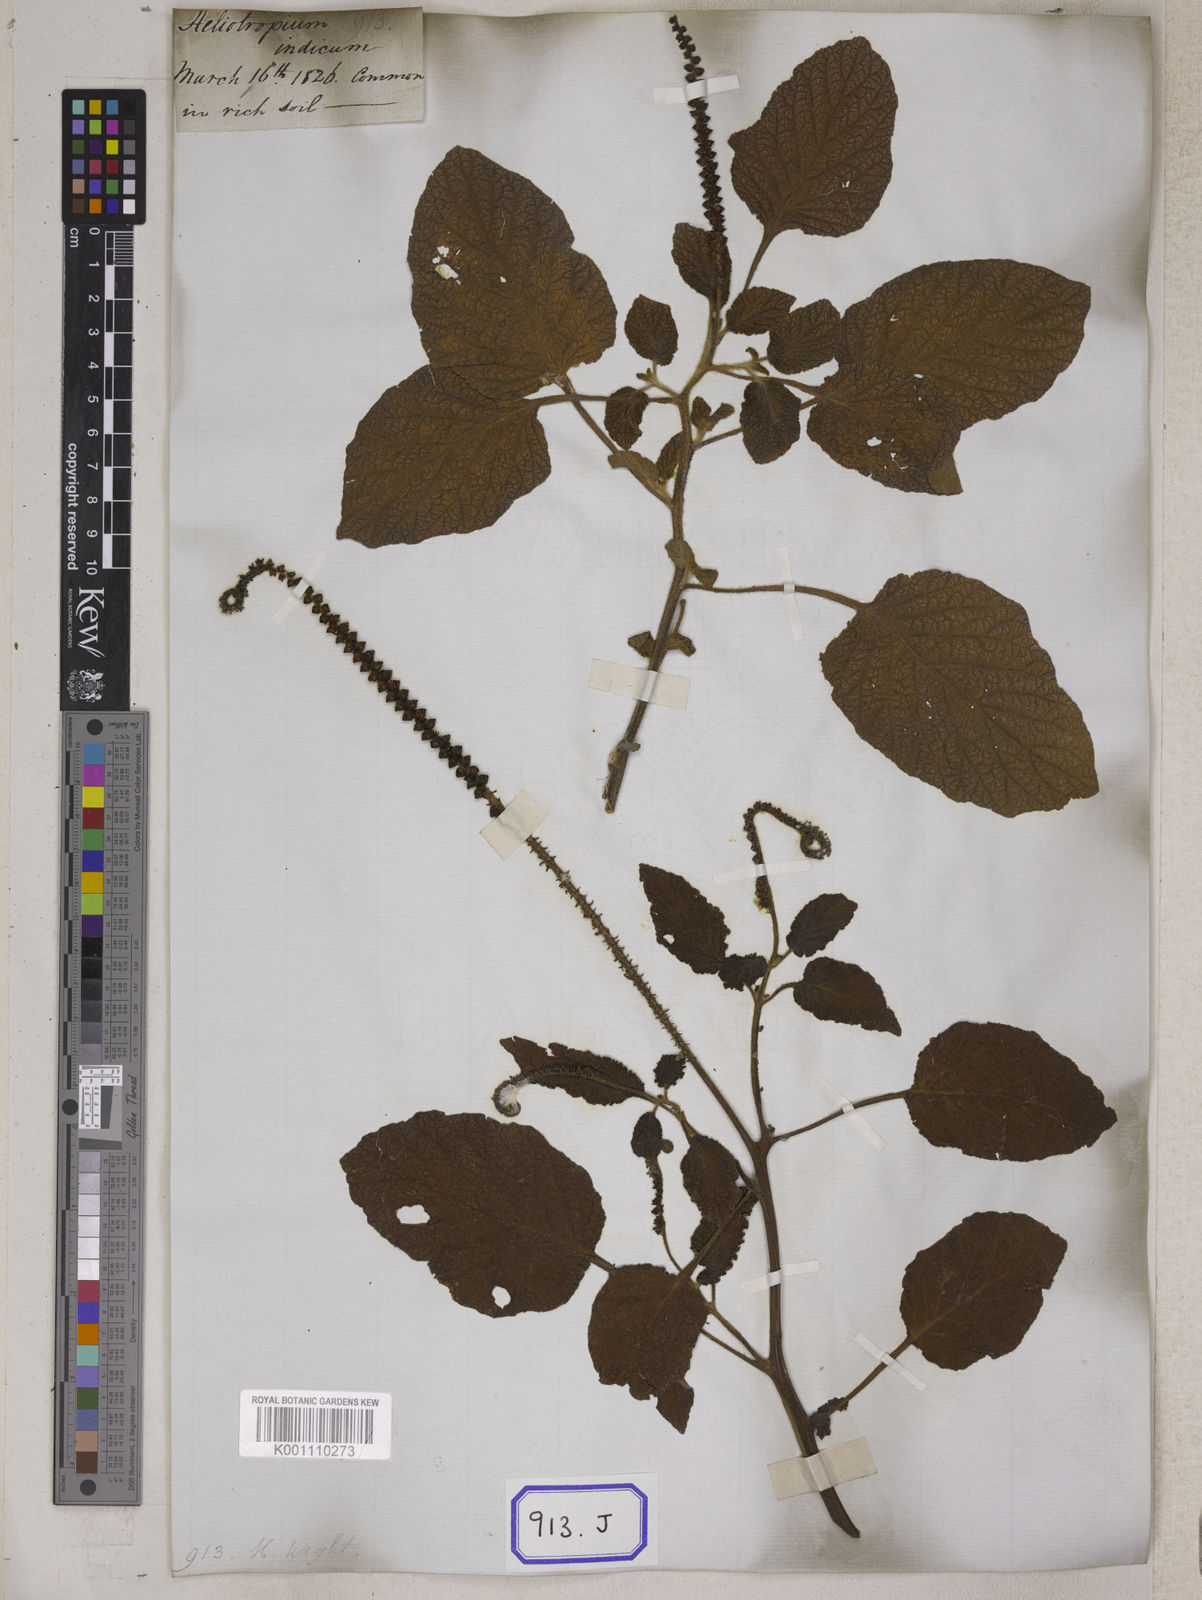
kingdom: Plantae
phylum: Tracheophyta
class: Magnoliopsida
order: Boraginales
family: Heliotropiaceae
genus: Heliotropium
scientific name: Heliotropium indicum
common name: Indian heliotrope
